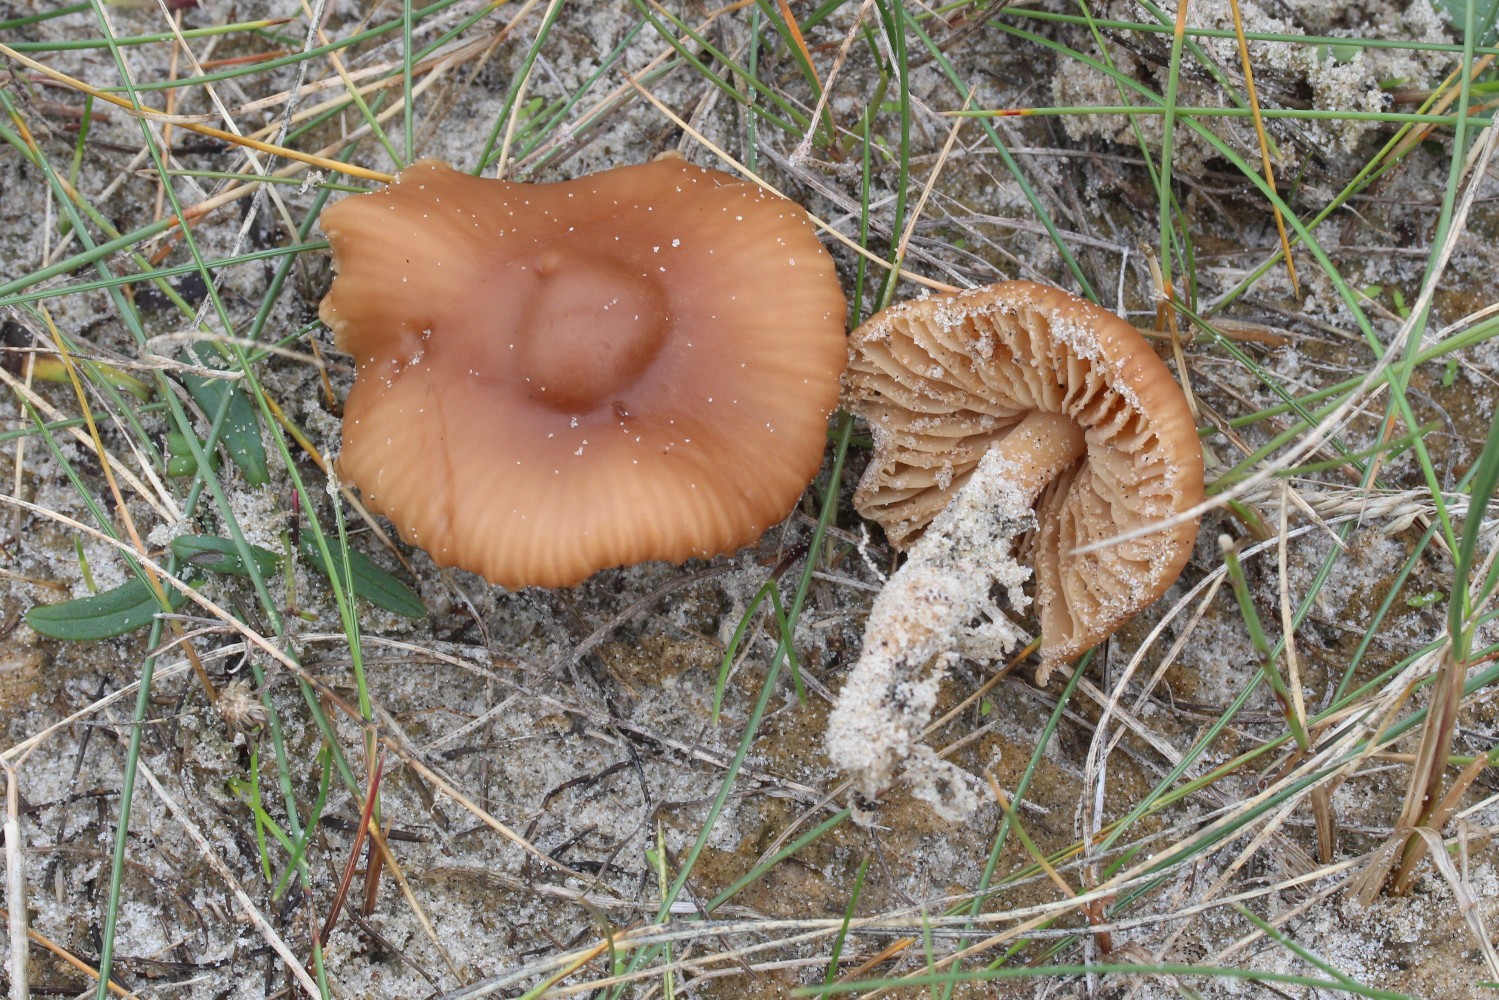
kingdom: Fungi
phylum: Basidiomycota
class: Agaricomycetes
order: Agaricales
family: Marasmiaceae
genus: Marasmius
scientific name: Marasmius oreades
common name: elledans-bruskhat
